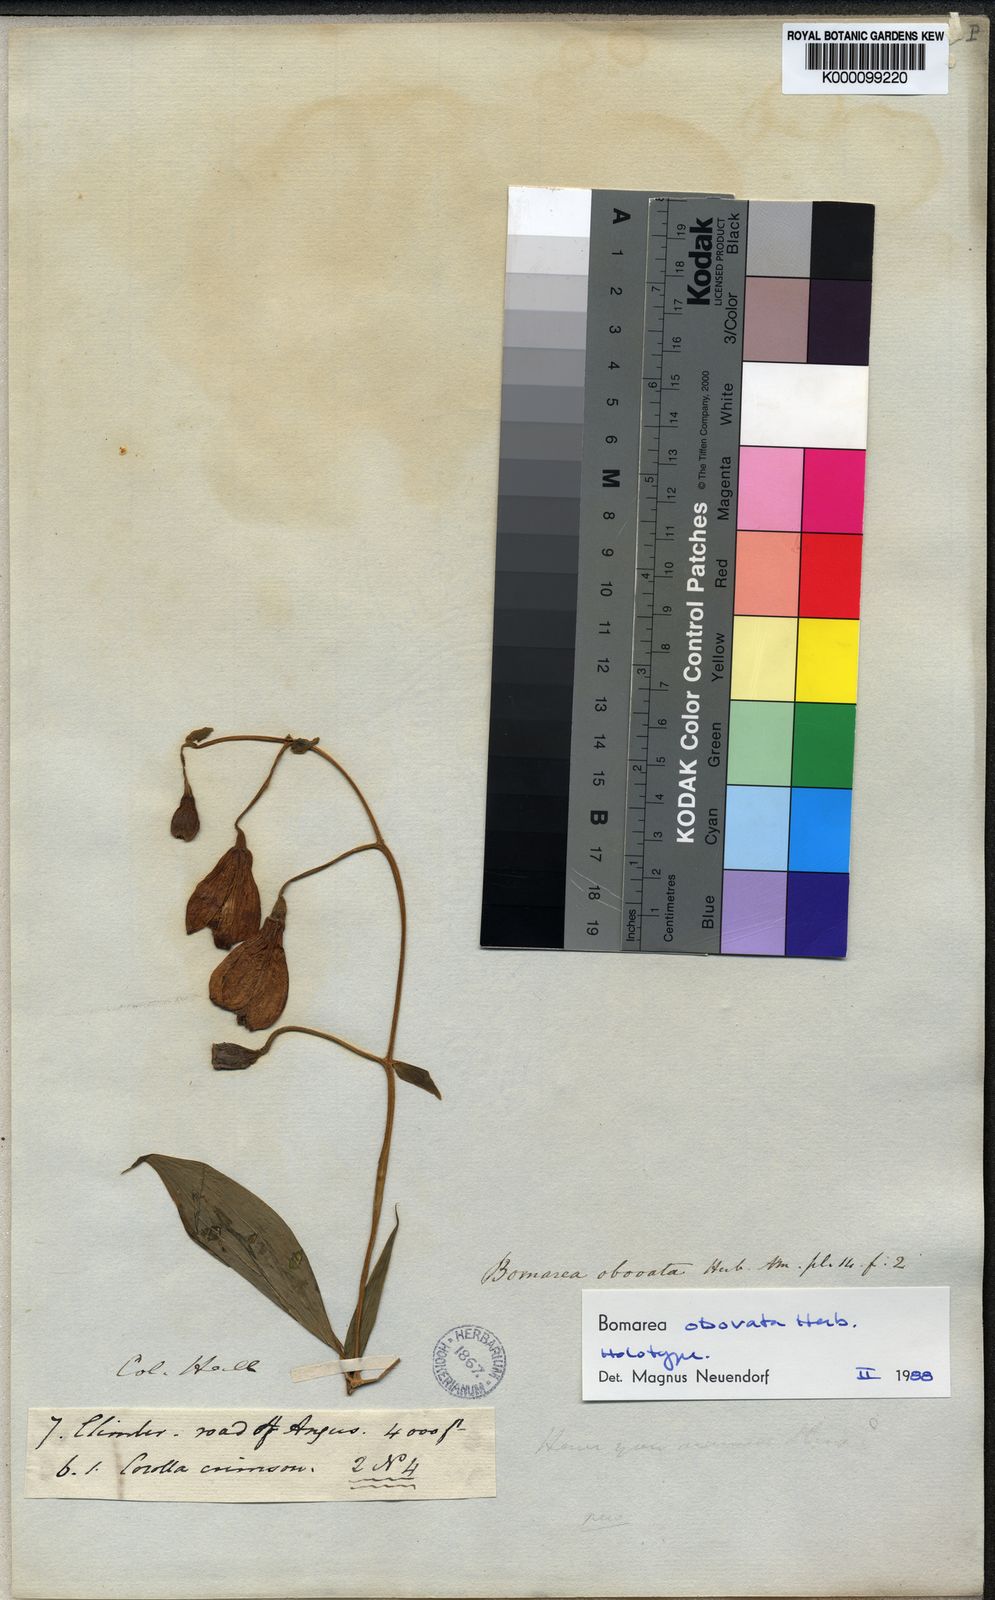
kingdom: Plantae
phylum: Tracheophyta
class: Liliopsida
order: Liliales
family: Alstroemeriaceae
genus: Bomarea
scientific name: Bomarea obovata
